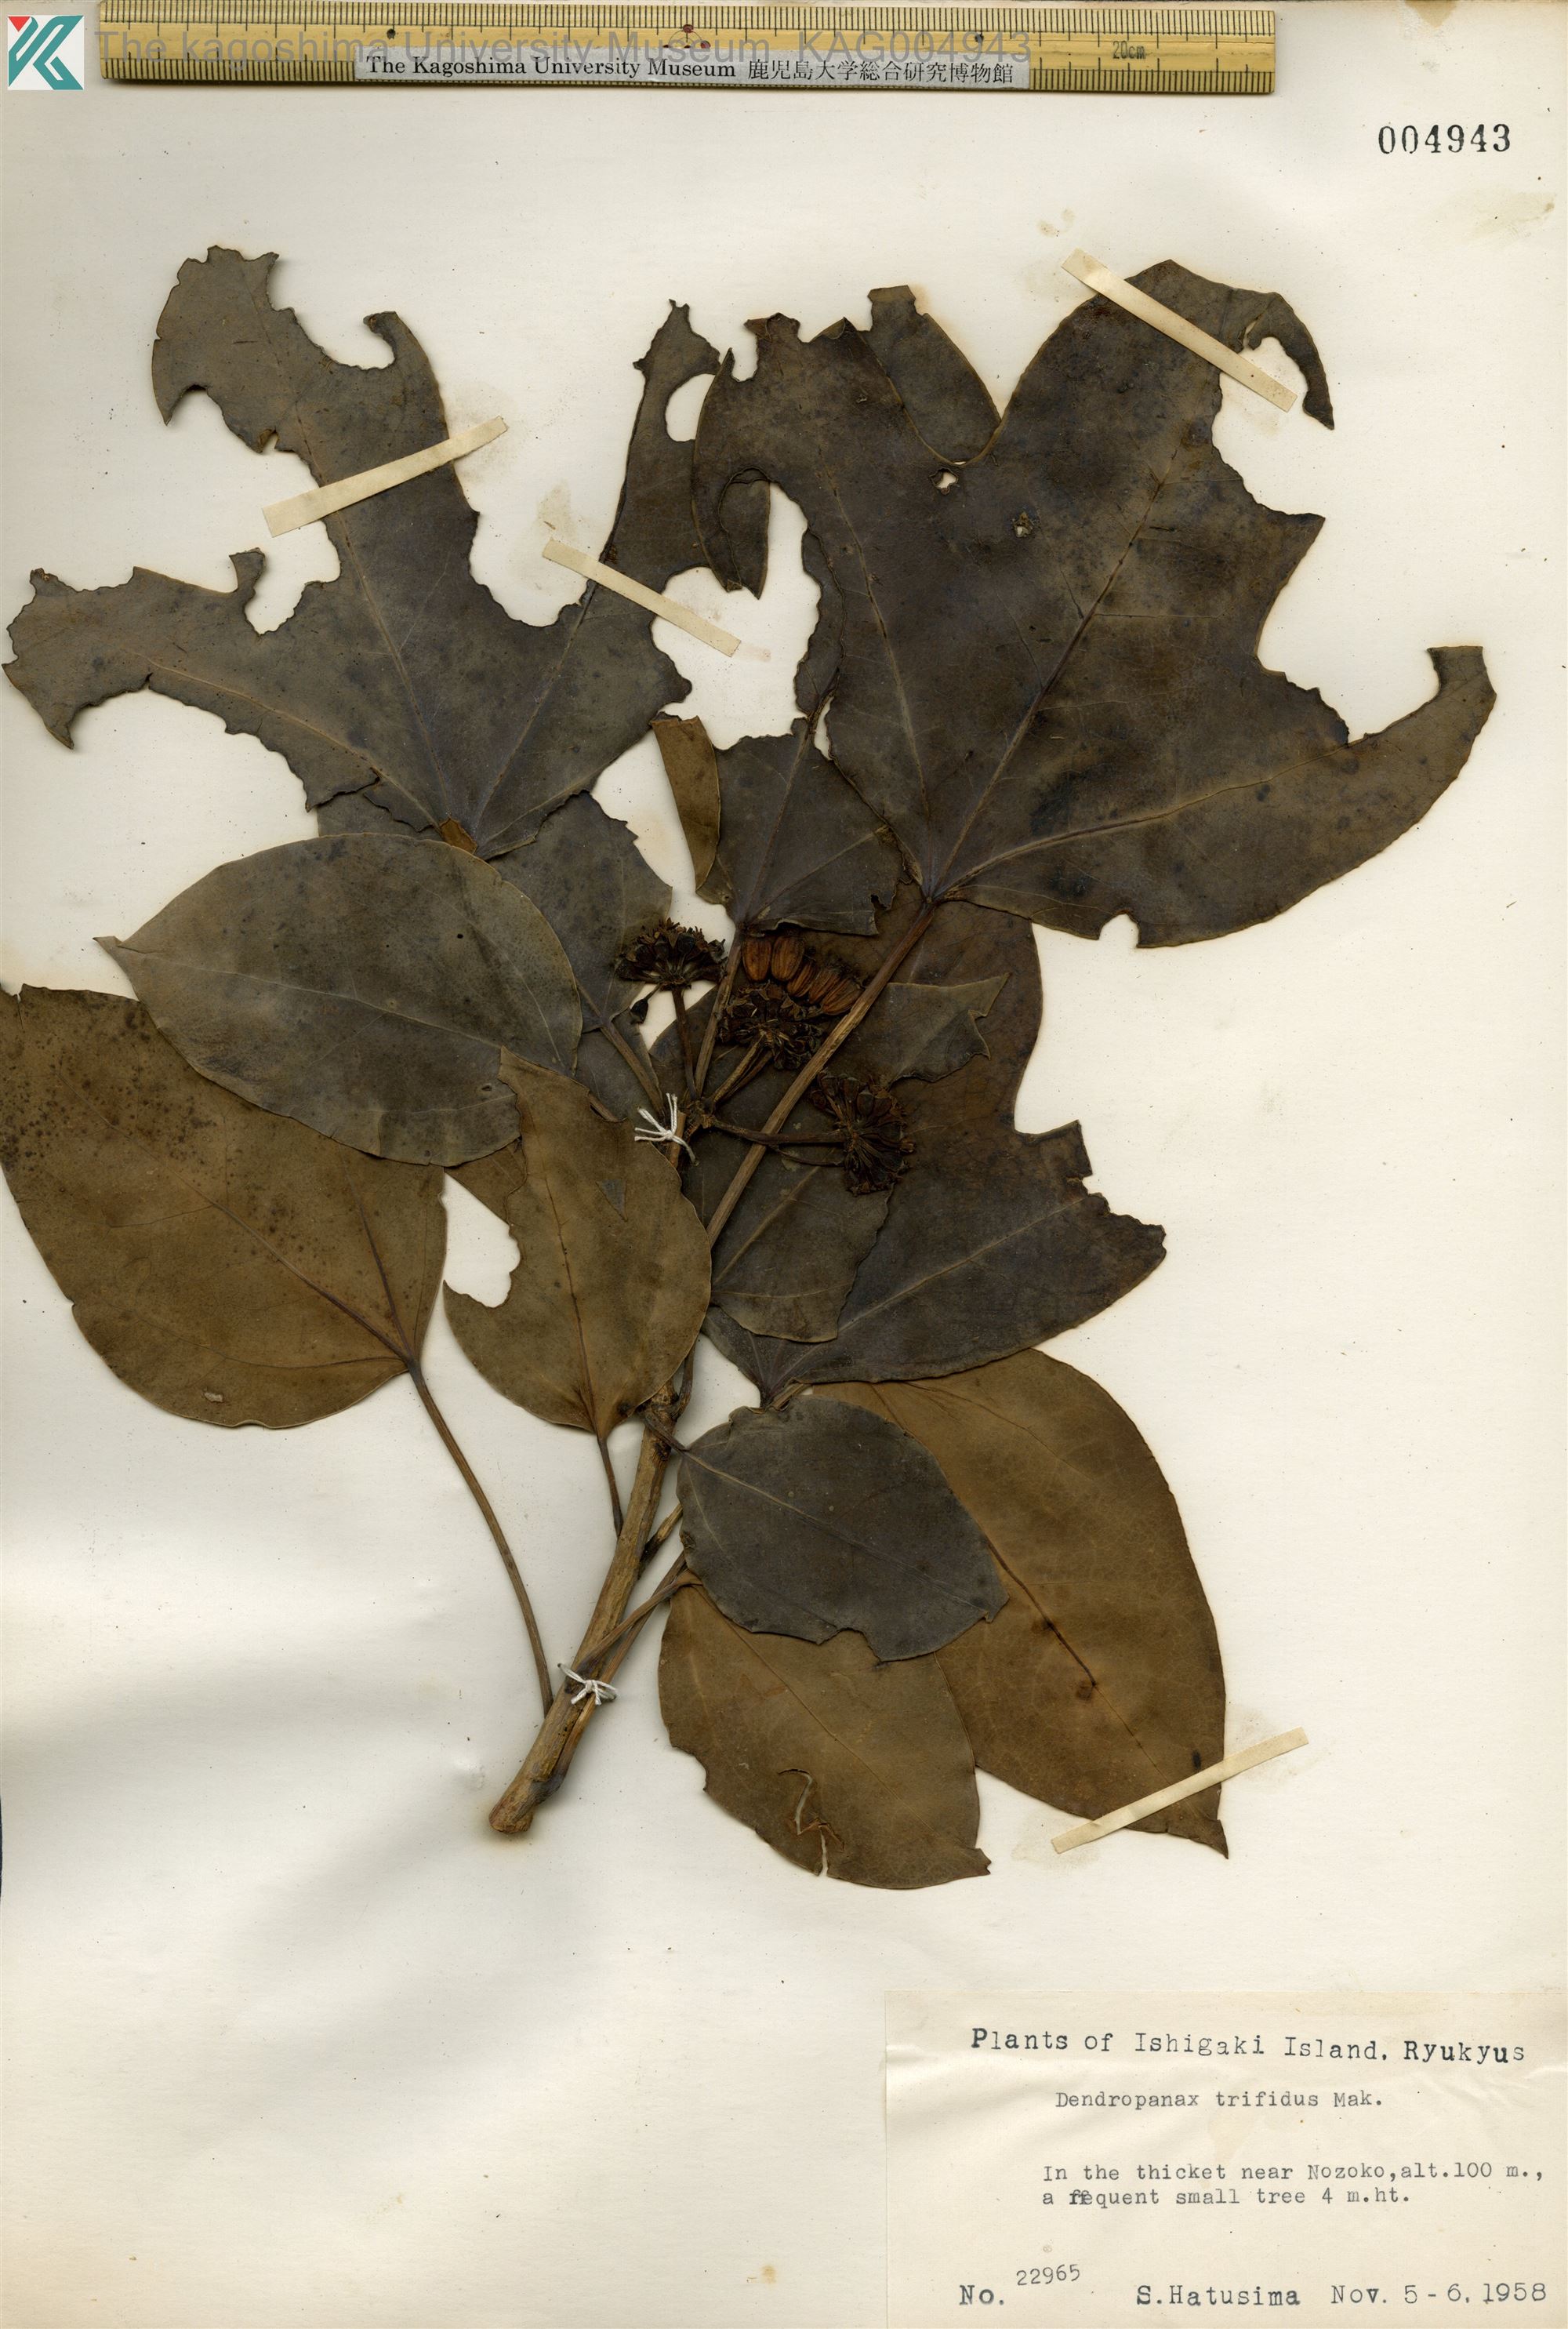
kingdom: Plantae
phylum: Tracheophyta
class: Magnoliopsida
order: Apiales
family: Araliaceae
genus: Dendropanax
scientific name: Dendropanax trifidus
